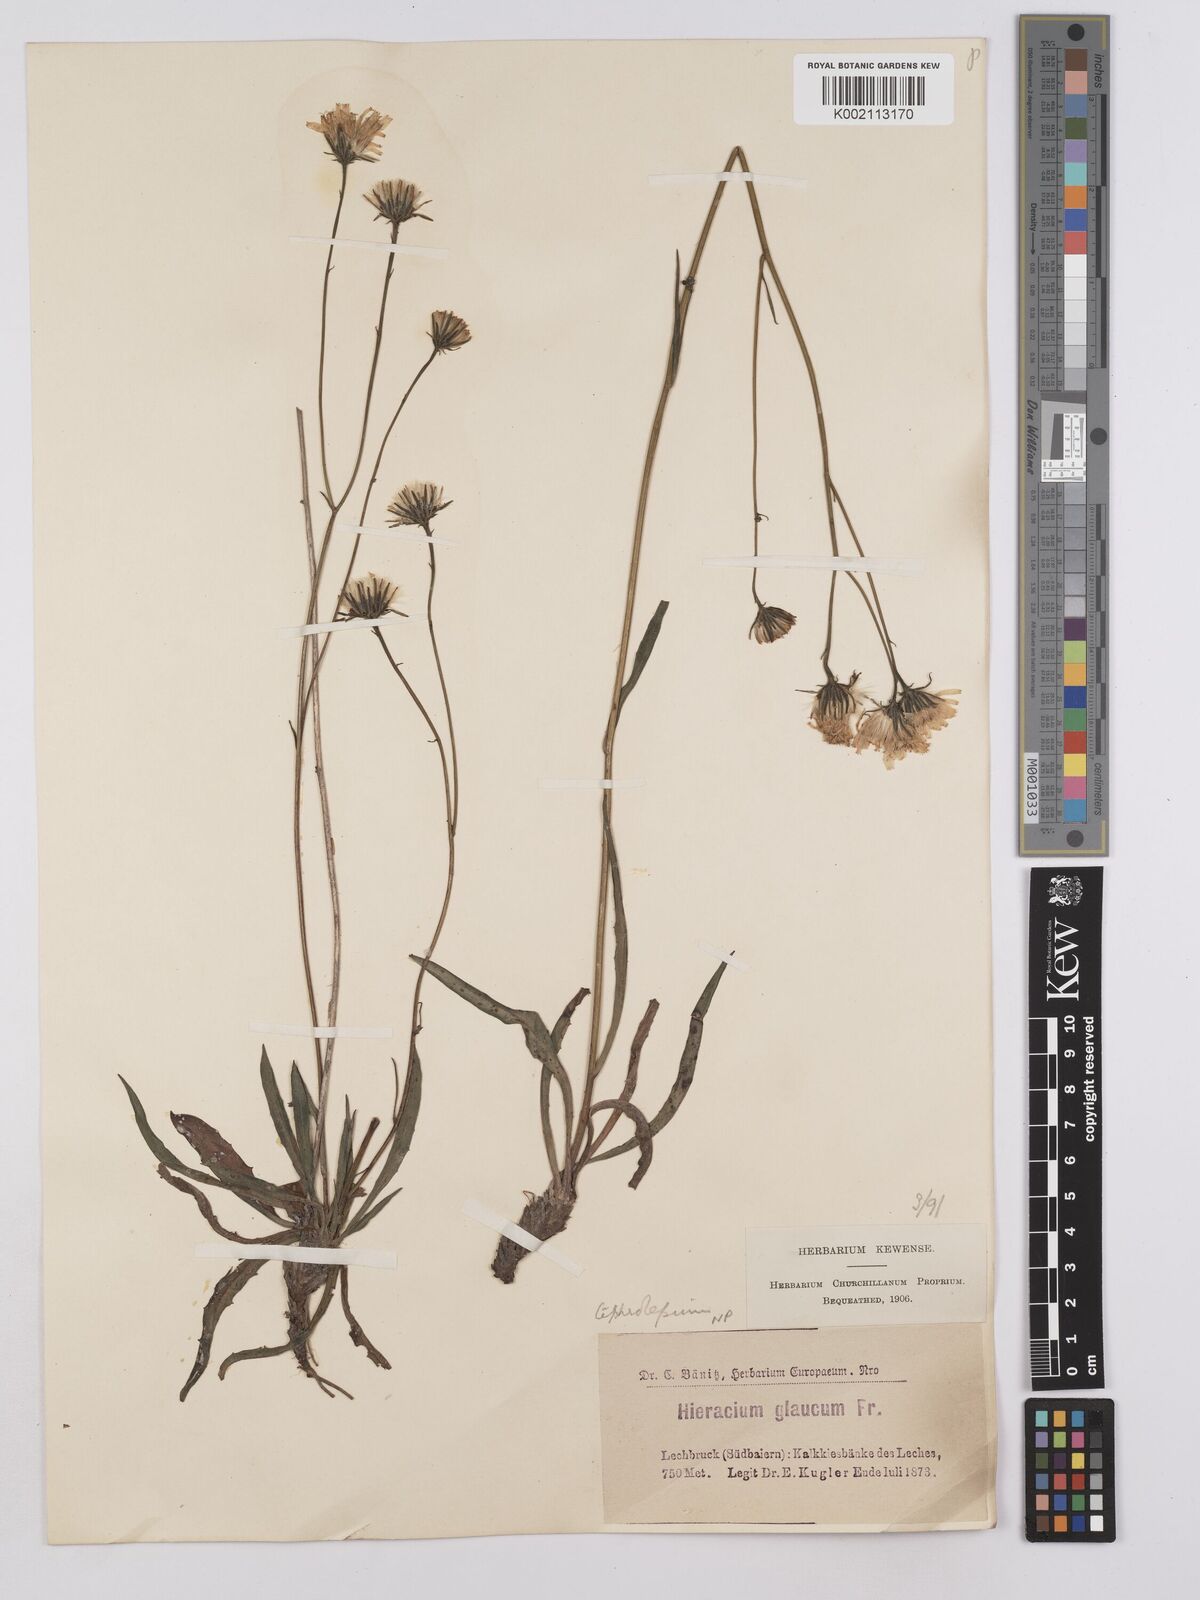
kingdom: Plantae
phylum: Tracheophyta
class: Magnoliopsida
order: Asterales
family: Asteraceae
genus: Hieracium
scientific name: Hieracium glaucum
